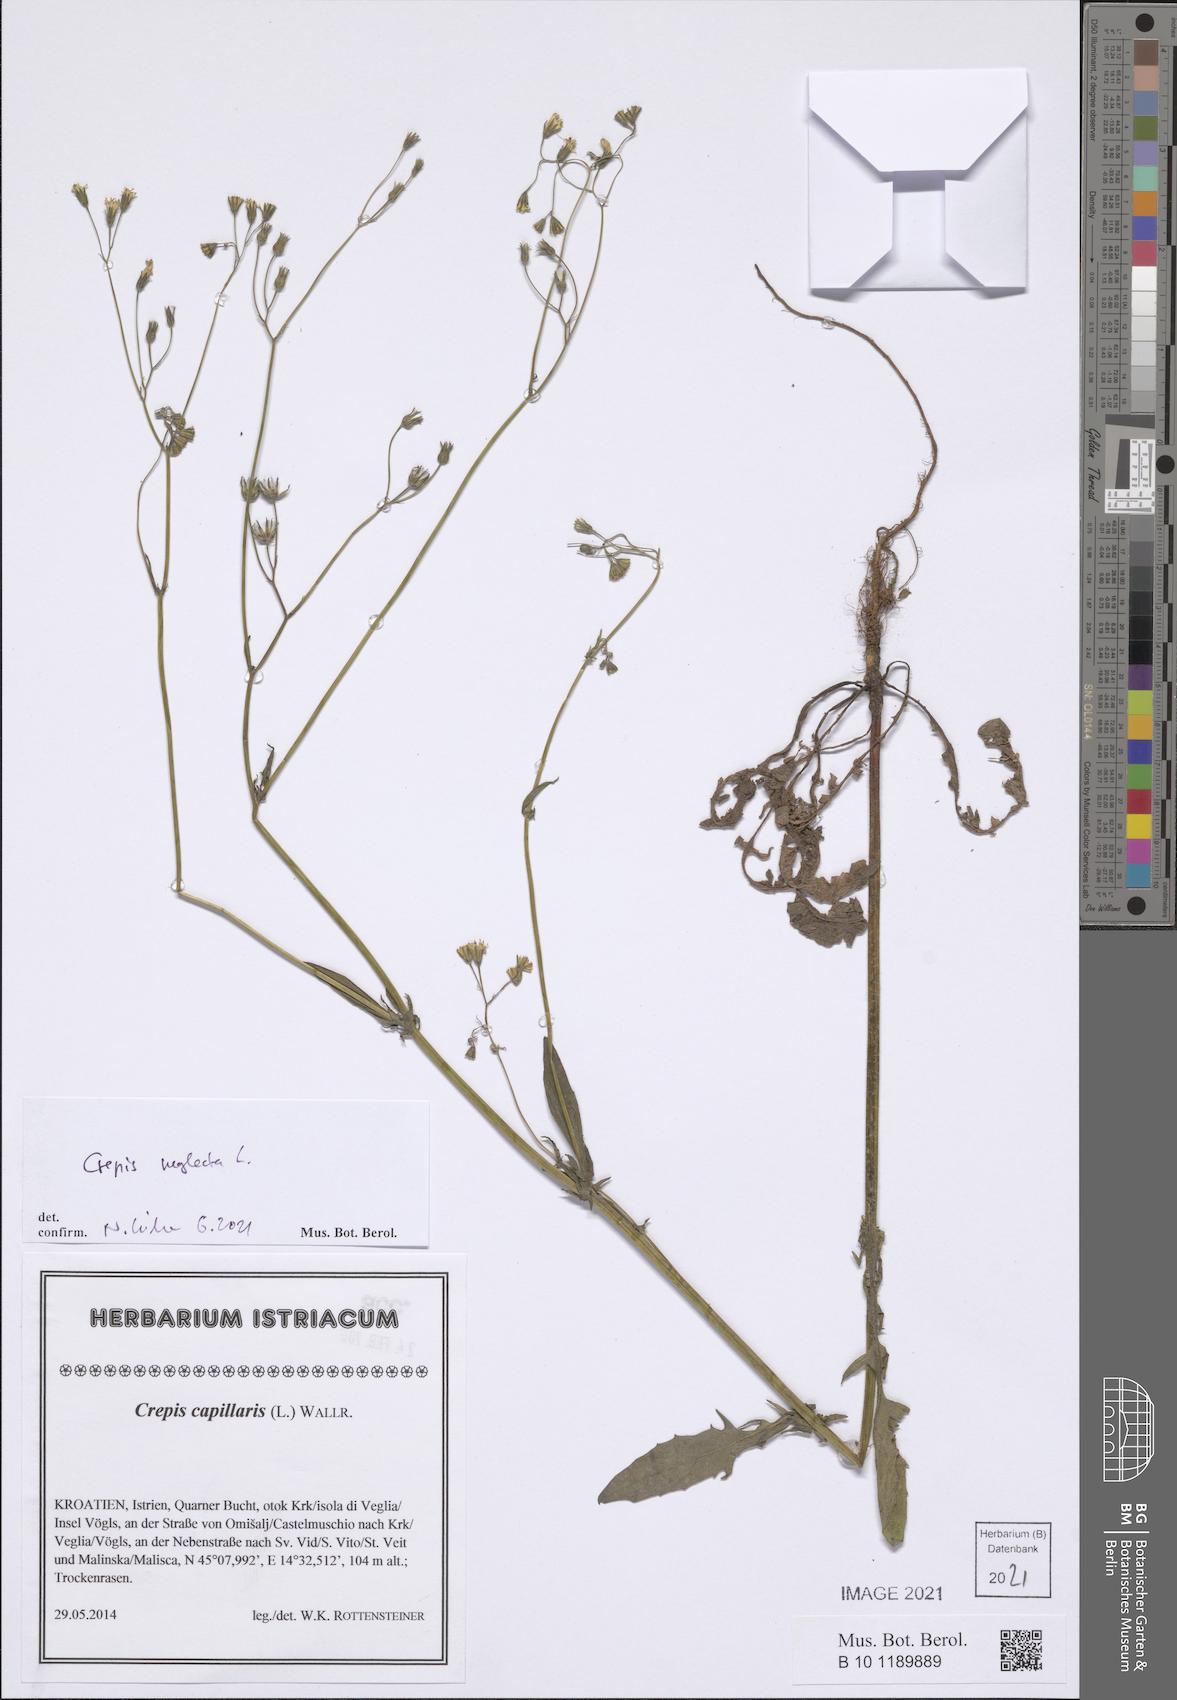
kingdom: Plantae
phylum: Tracheophyta
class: Magnoliopsida
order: Asterales
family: Asteraceae
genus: Crepis
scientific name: Crepis neglecta
